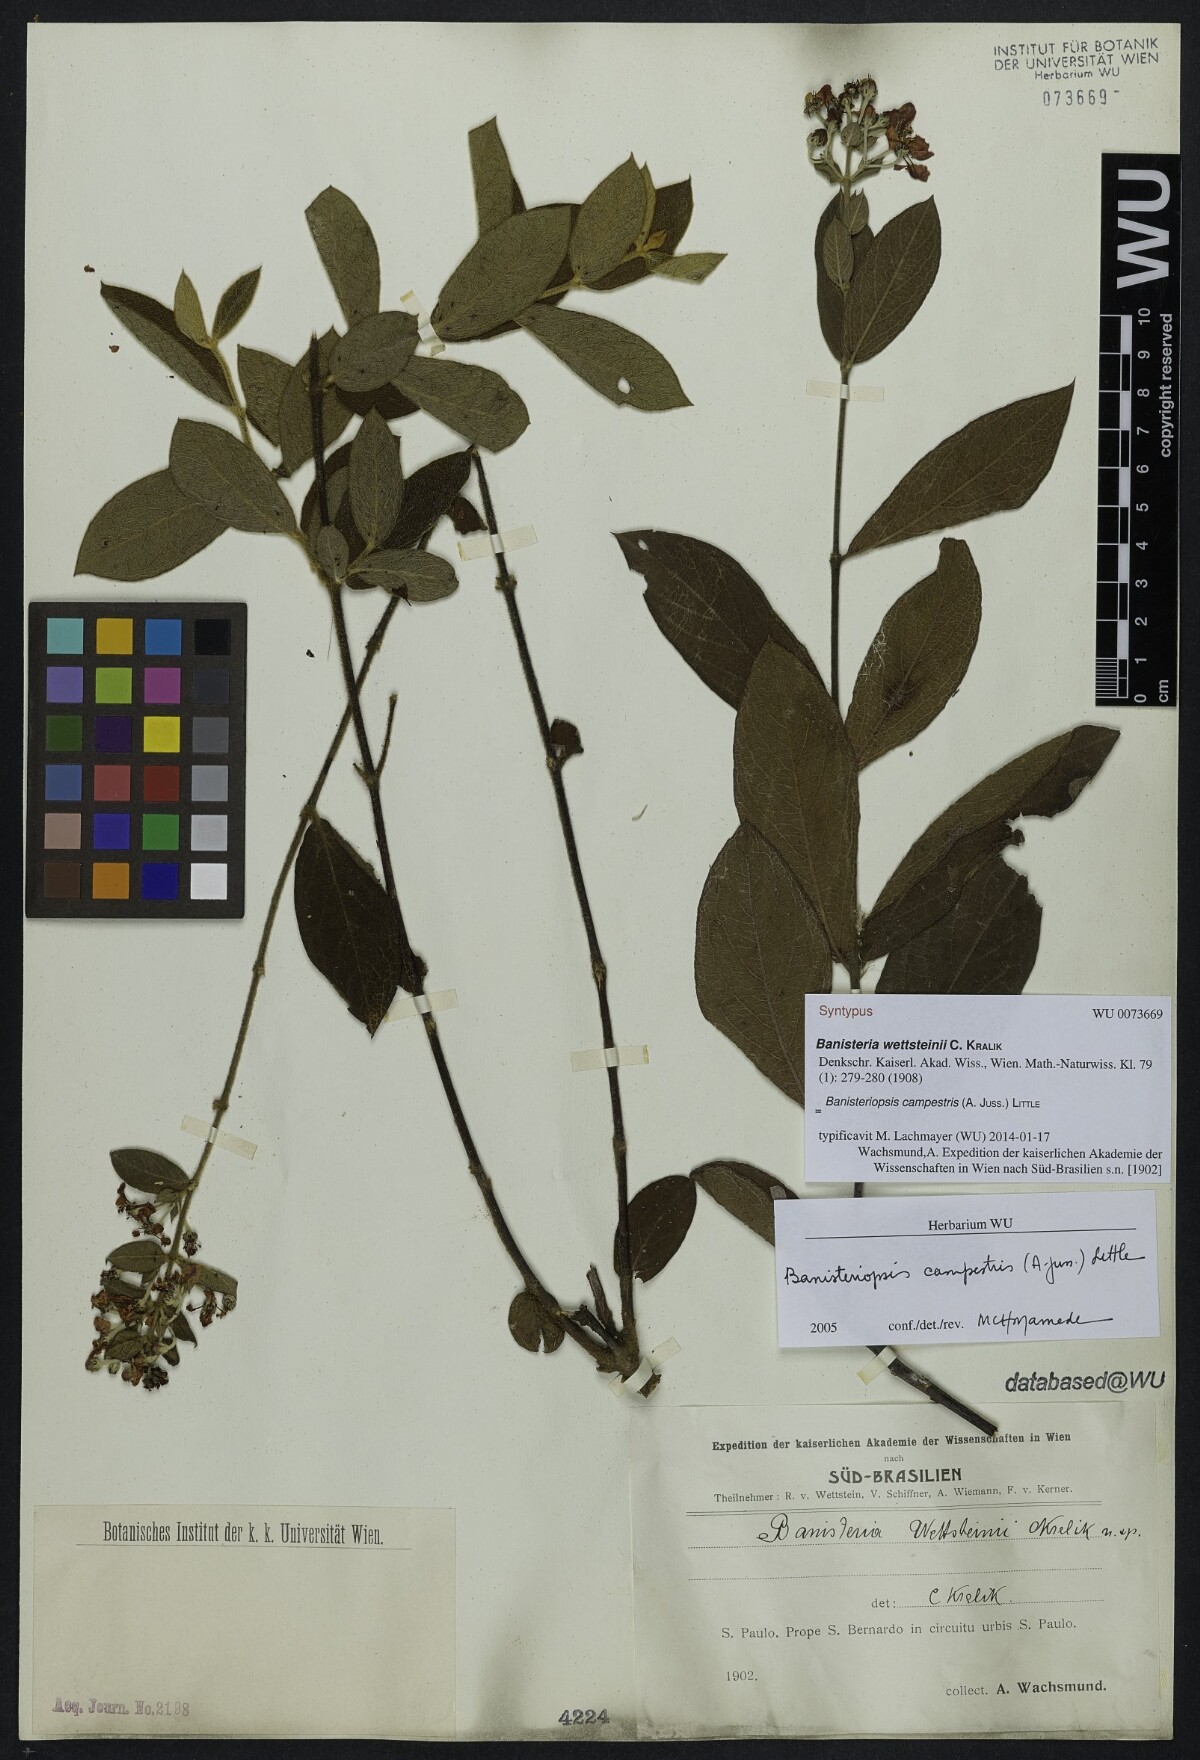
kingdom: Plantae
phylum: Tracheophyta
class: Magnoliopsida
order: Malpighiales
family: Malpighiaceae
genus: Banisteriopsis
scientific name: Banisteriopsis campestris
